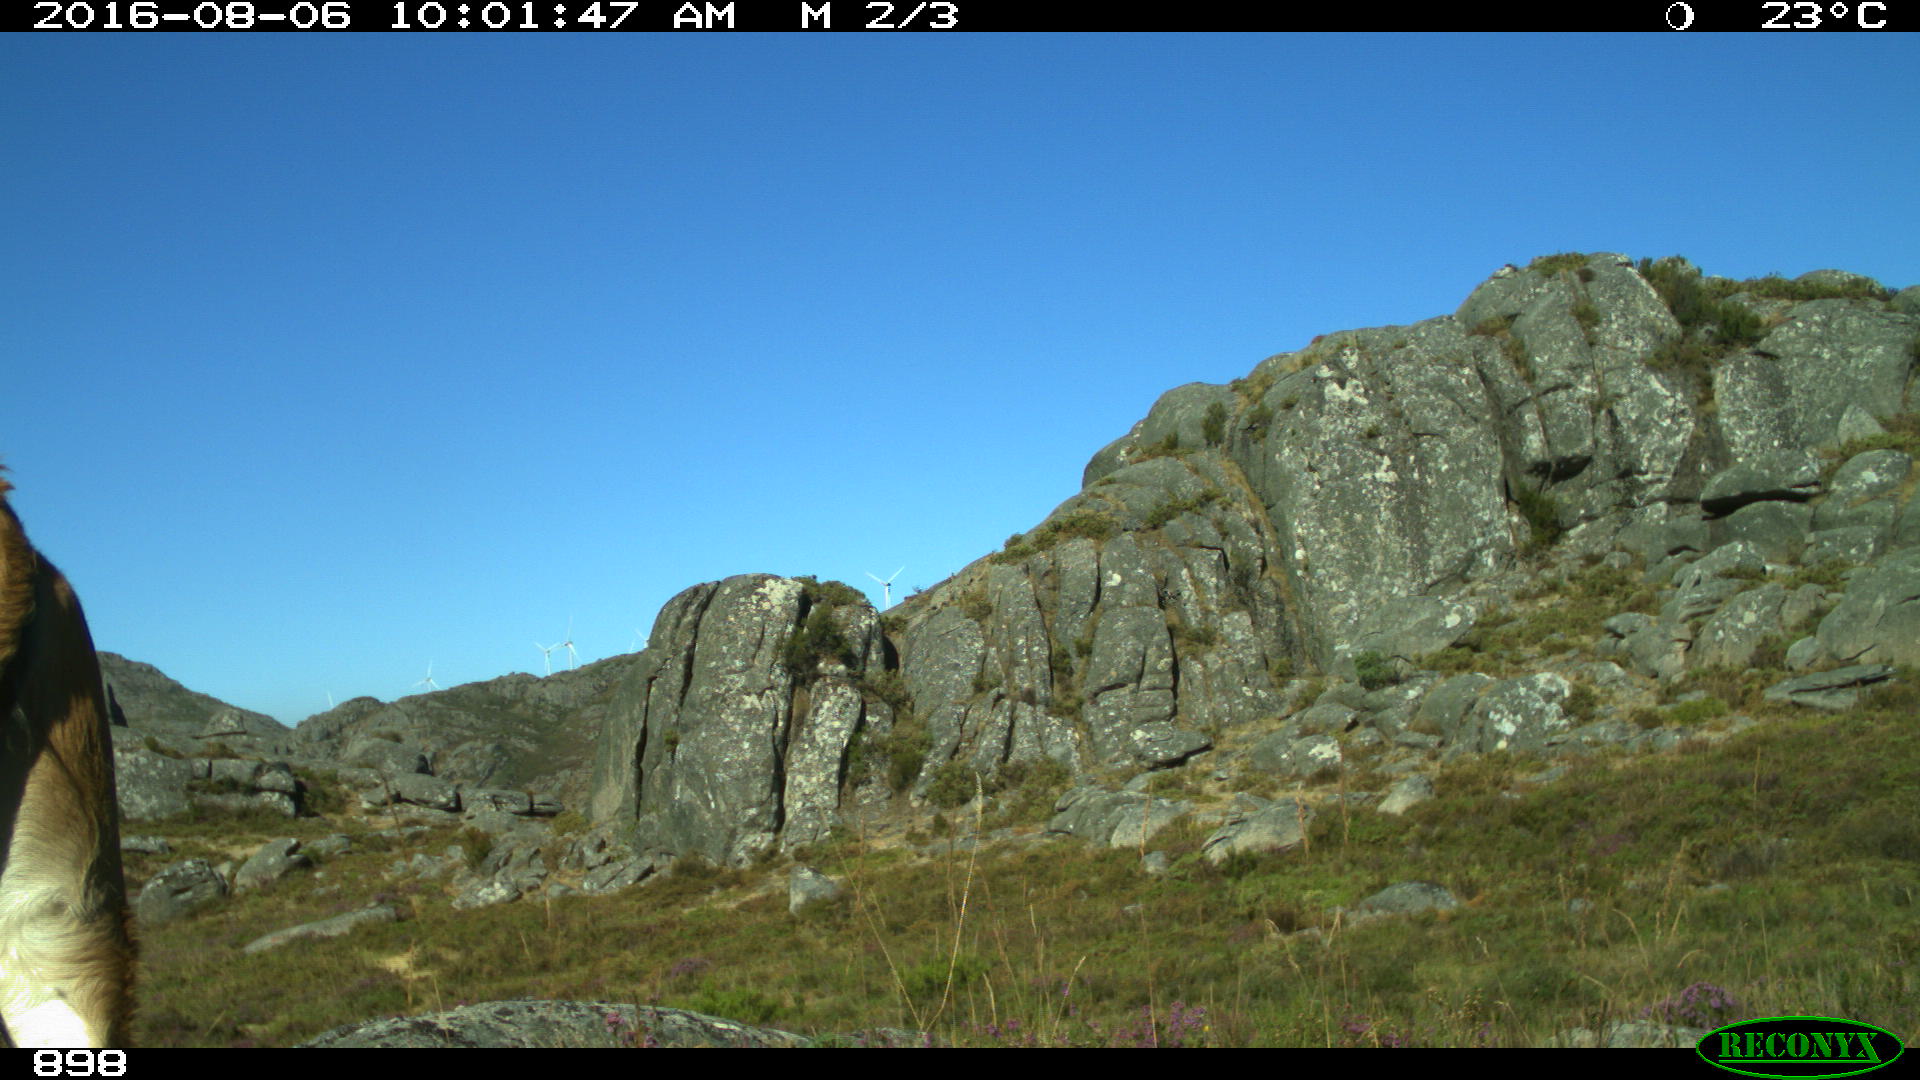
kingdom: Animalia
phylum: Chordata
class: Mammalia
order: Artiodactyla
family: Bovidae
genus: Bos
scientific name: Bos taurus
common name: Domesticated cattle
